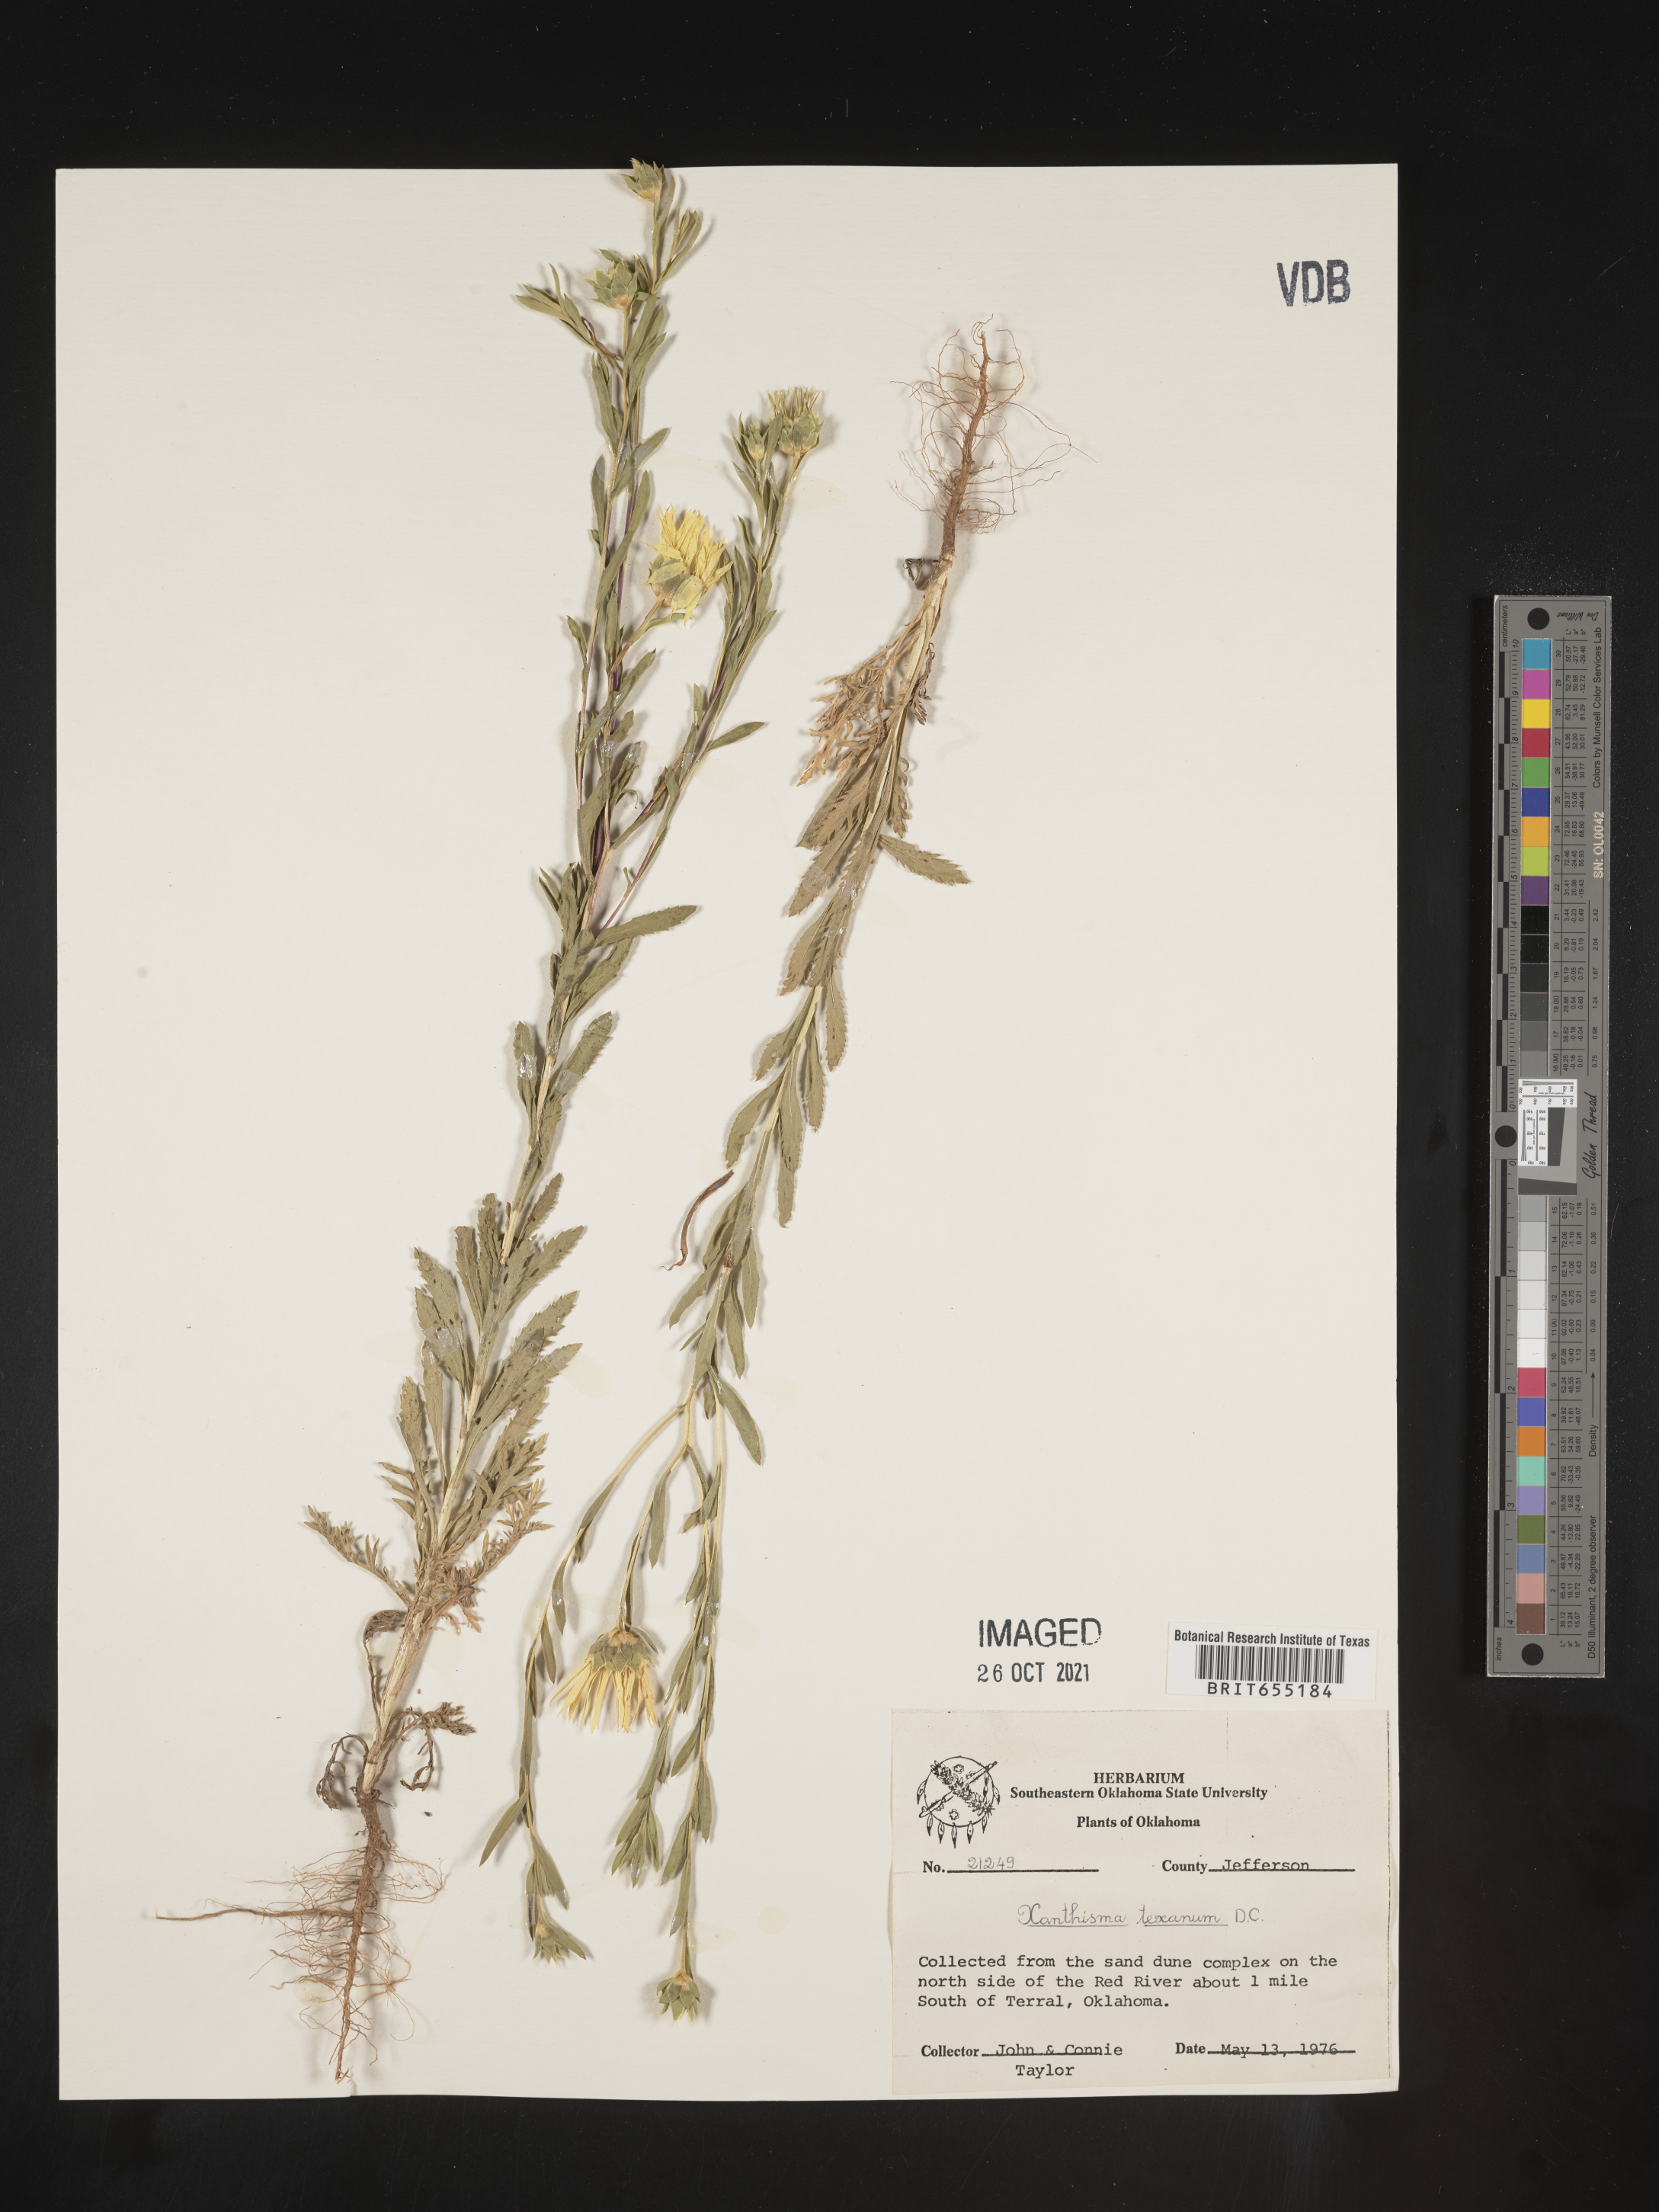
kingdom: Plantae
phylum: Tracheophyta
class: Magnoliopsida
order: Asterales
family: Asteraceae
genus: Xanthisma
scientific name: Xanthisma texanum
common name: Texas sleepy daisy
